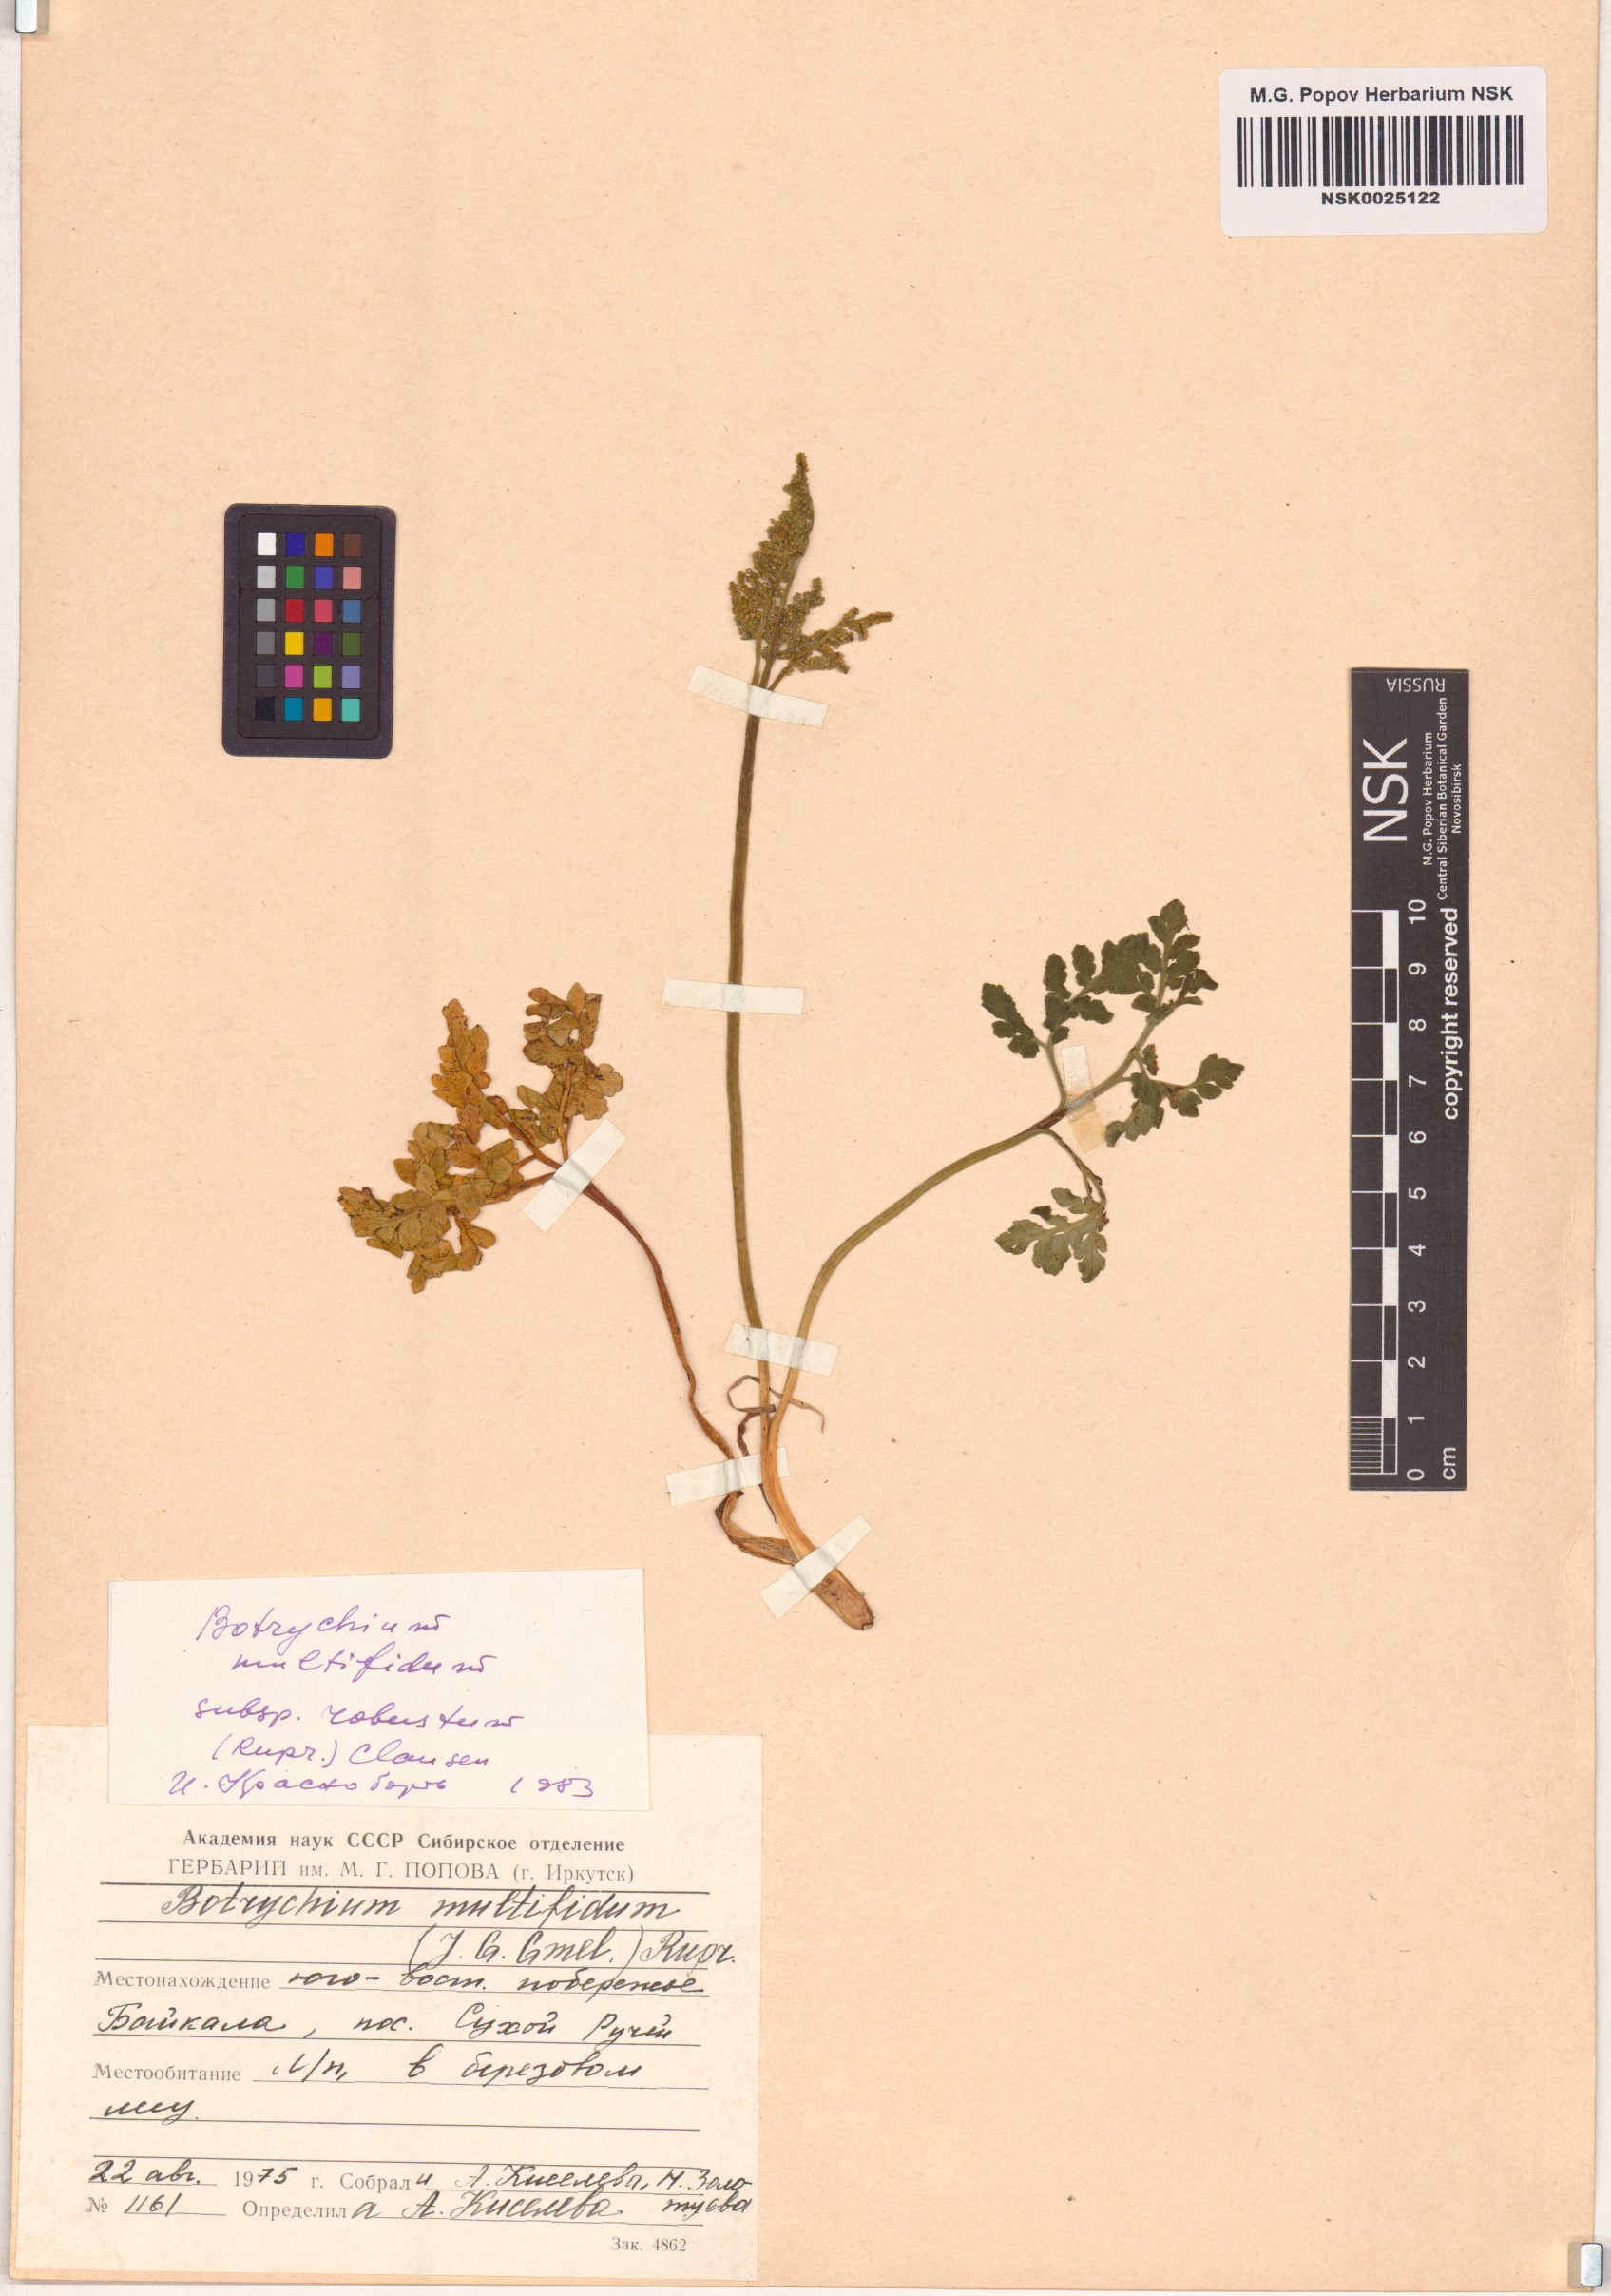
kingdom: Plantae
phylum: Tracheophyta
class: Polypodiopsida
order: Ophioglossales
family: Ophioglossaceae
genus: Sceptridium
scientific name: Sceptridium multifidum
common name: Leathery grape fern
